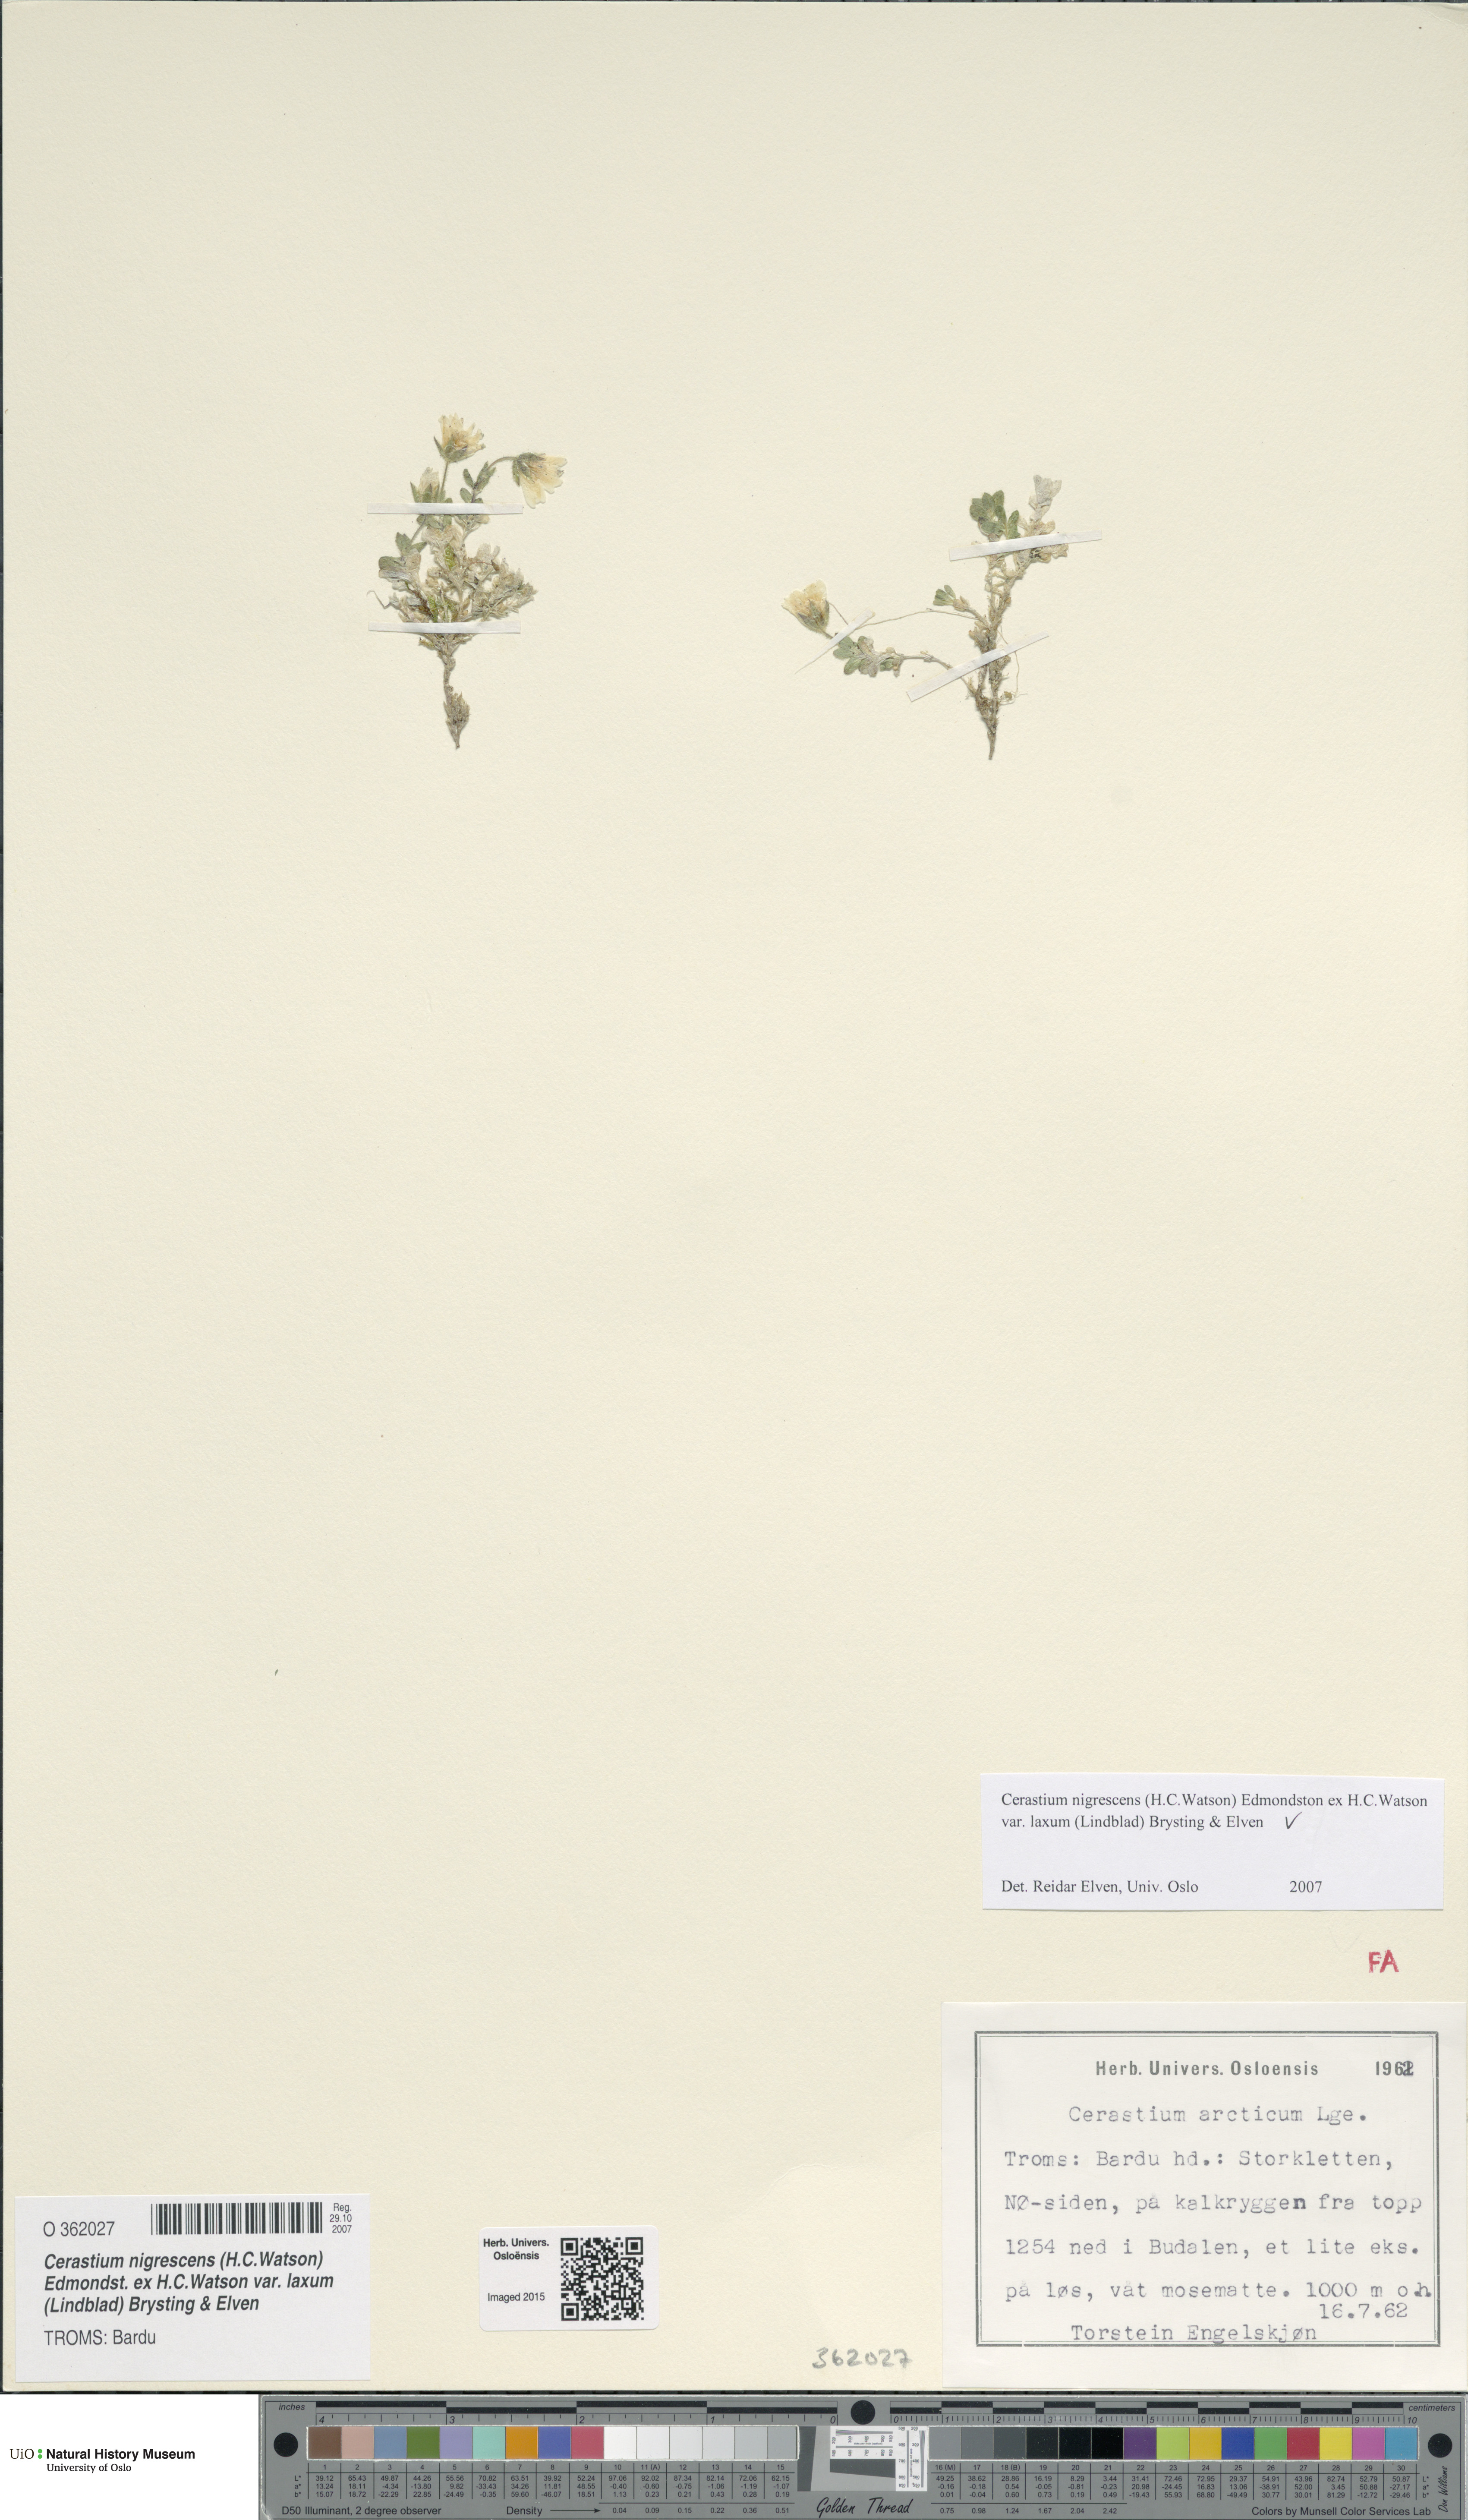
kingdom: Plantae
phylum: Tracheophyta
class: Magnoliopsida
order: Caryophyllales
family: Caryophyllaceae
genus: Cerastium
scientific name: Cerastium nigrescens
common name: Shetland mouse-ear
